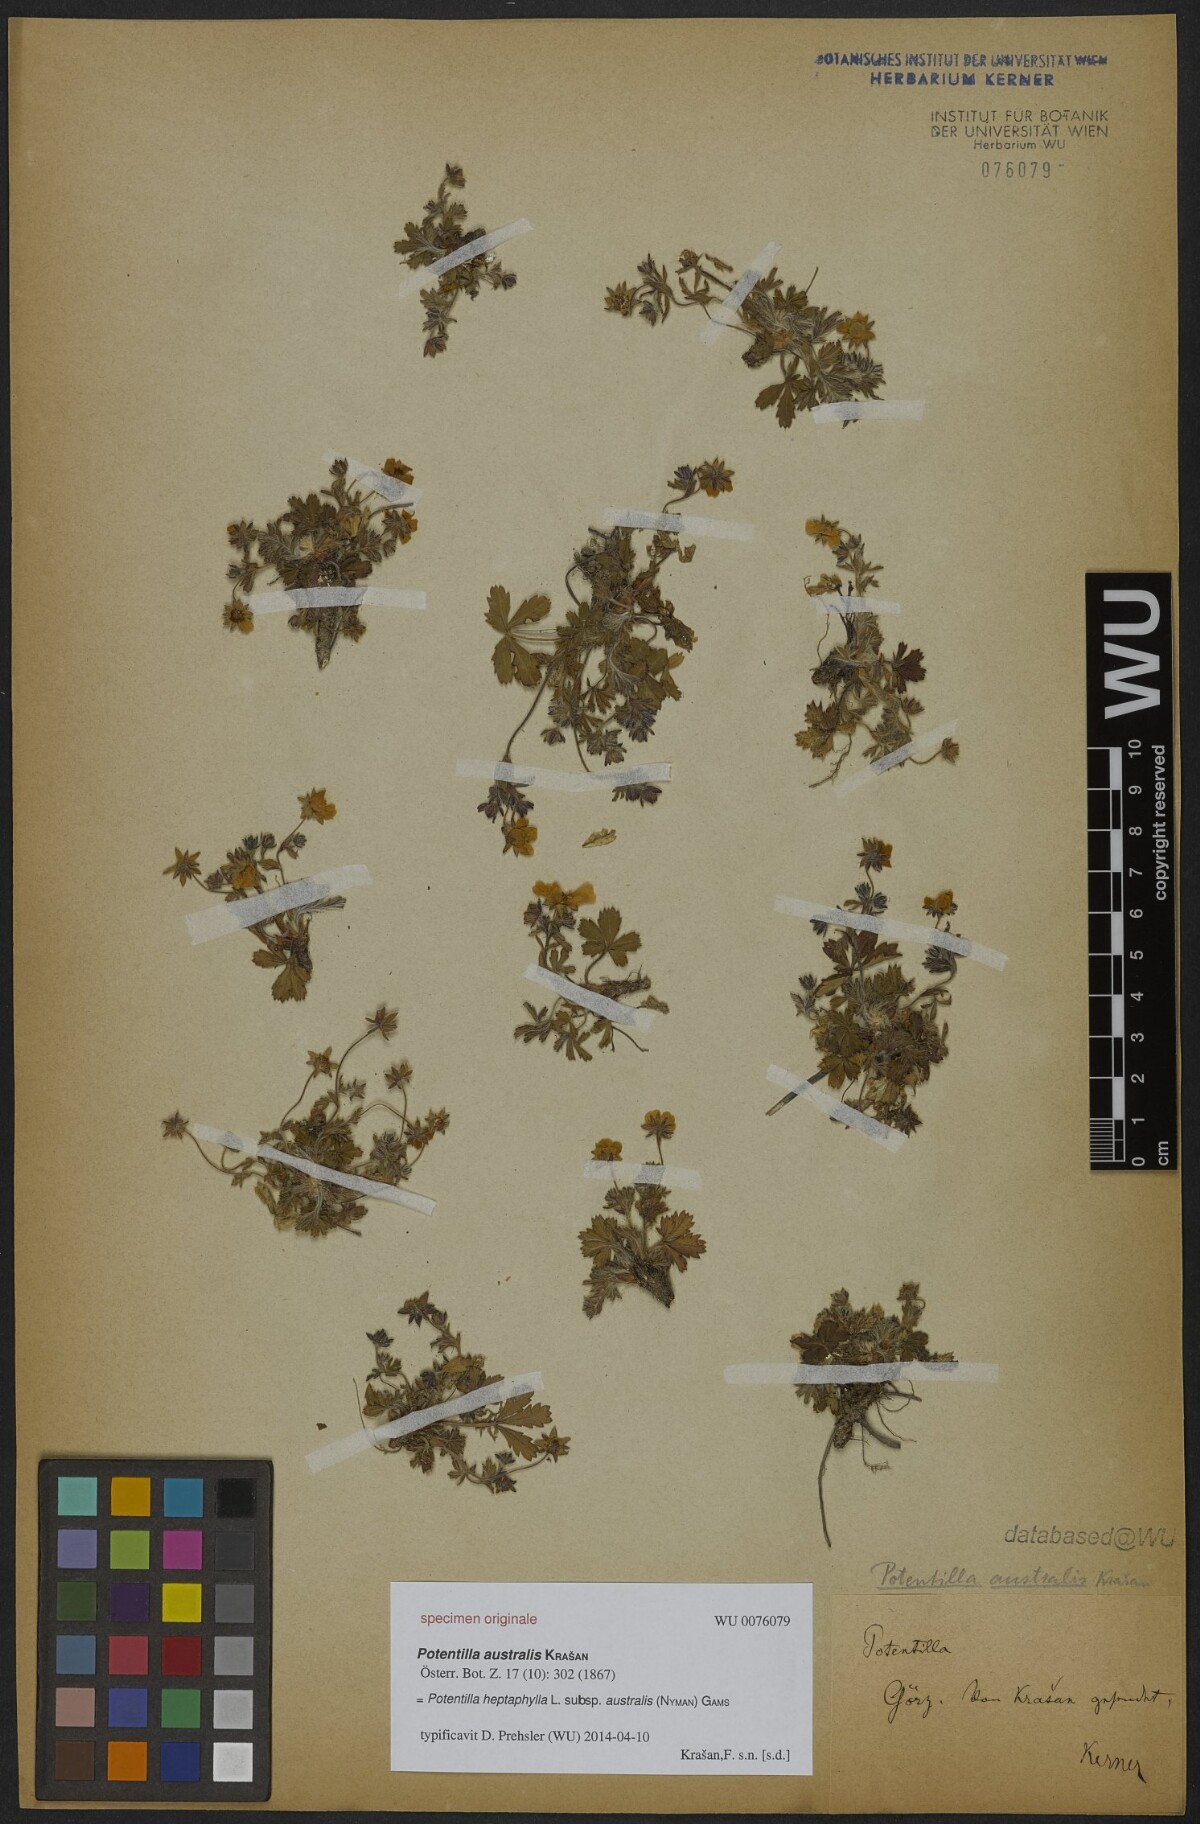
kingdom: Plantae
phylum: Tracheophyta
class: Magnoliopsida
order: Rosales
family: Rosaceae
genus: Potentilla
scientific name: Potentilla heptaphylla
